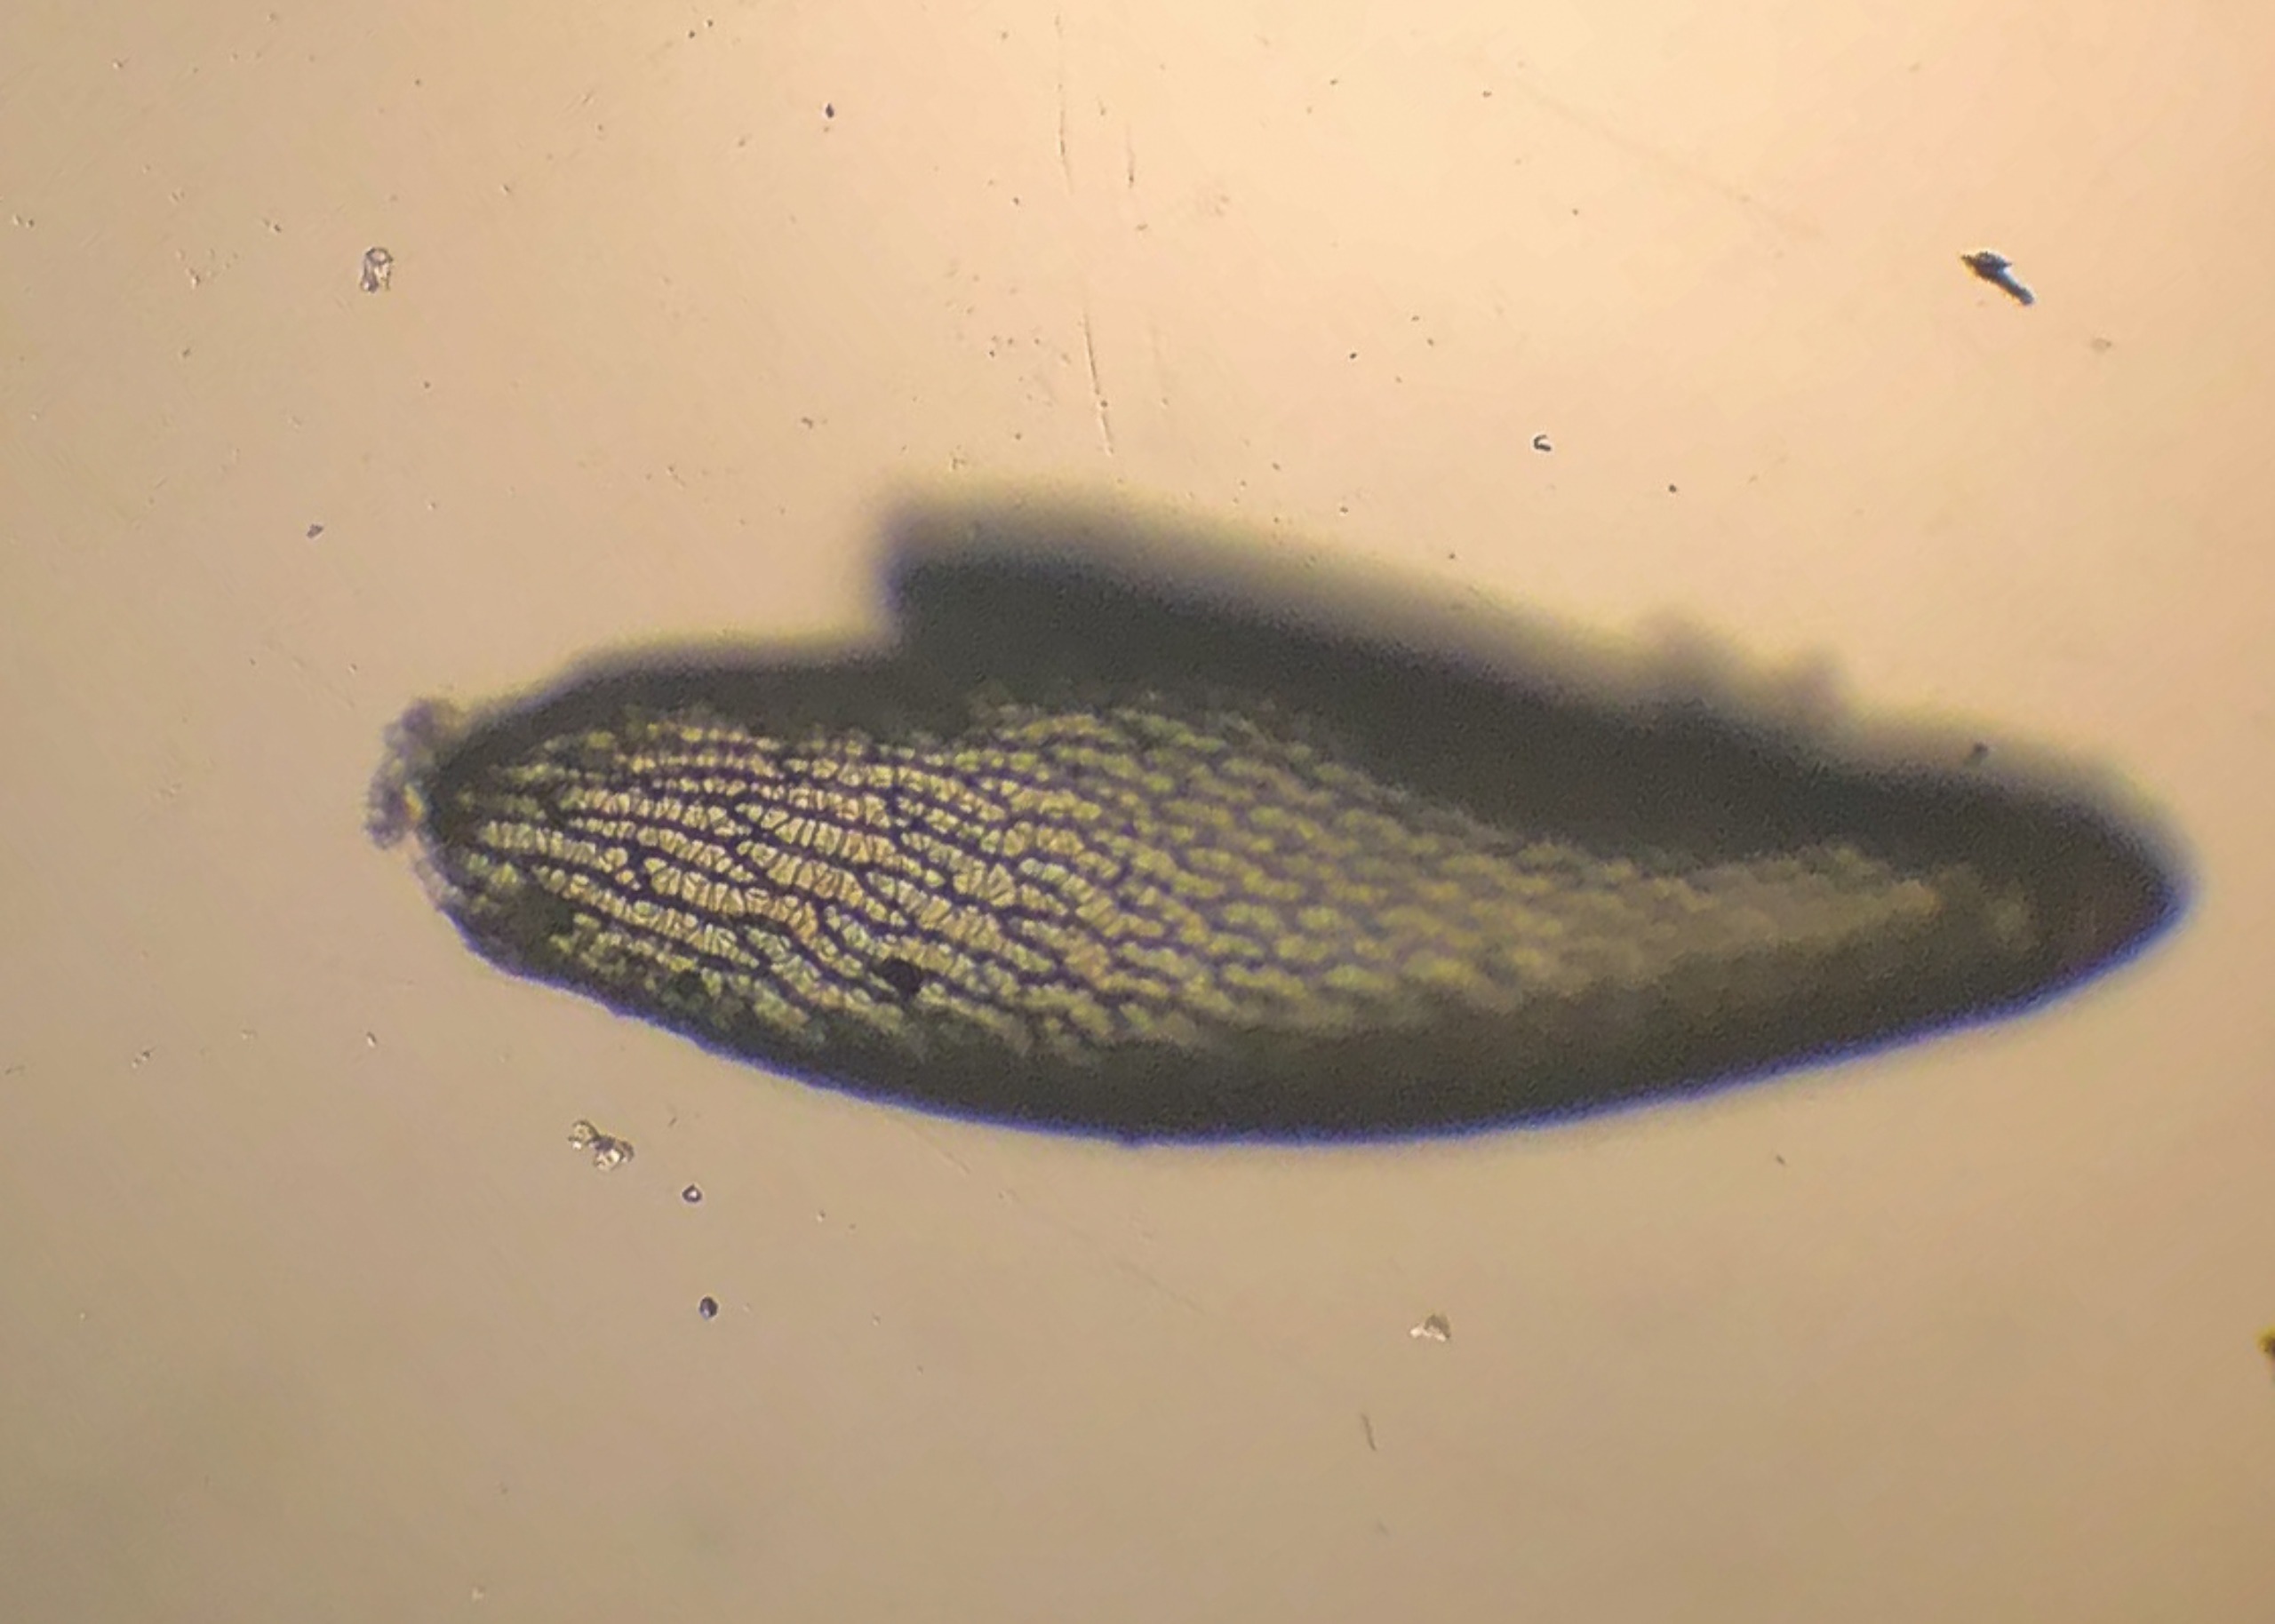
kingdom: Plantae
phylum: Bryophyta
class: Sphagnopsida
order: Sphagnales
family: Sphagnaceae
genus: Sphagnum
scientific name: Sphagnum palustre
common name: Almindelig tørvemos
